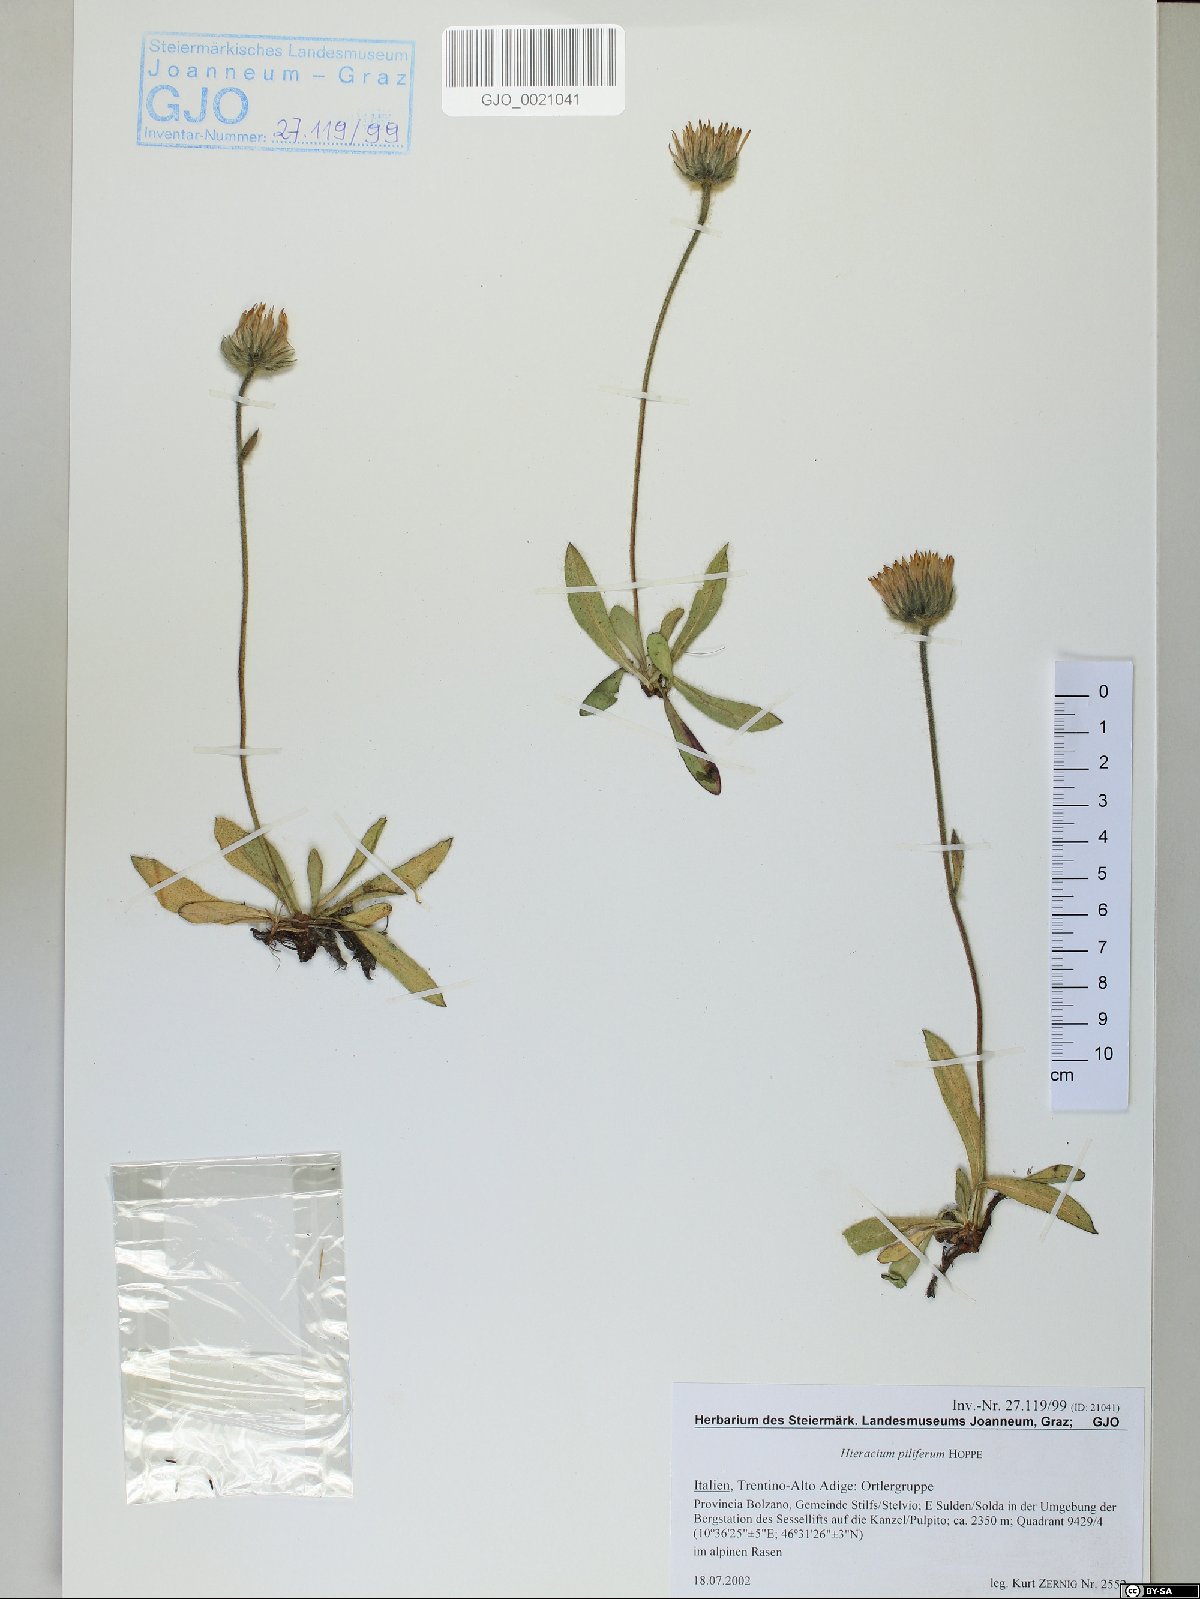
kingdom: Plantae
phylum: Tracheophyta
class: Magnoliopsida
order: Asterales
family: Asteraceae
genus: Hieracium
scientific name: Hieracium piliferum
